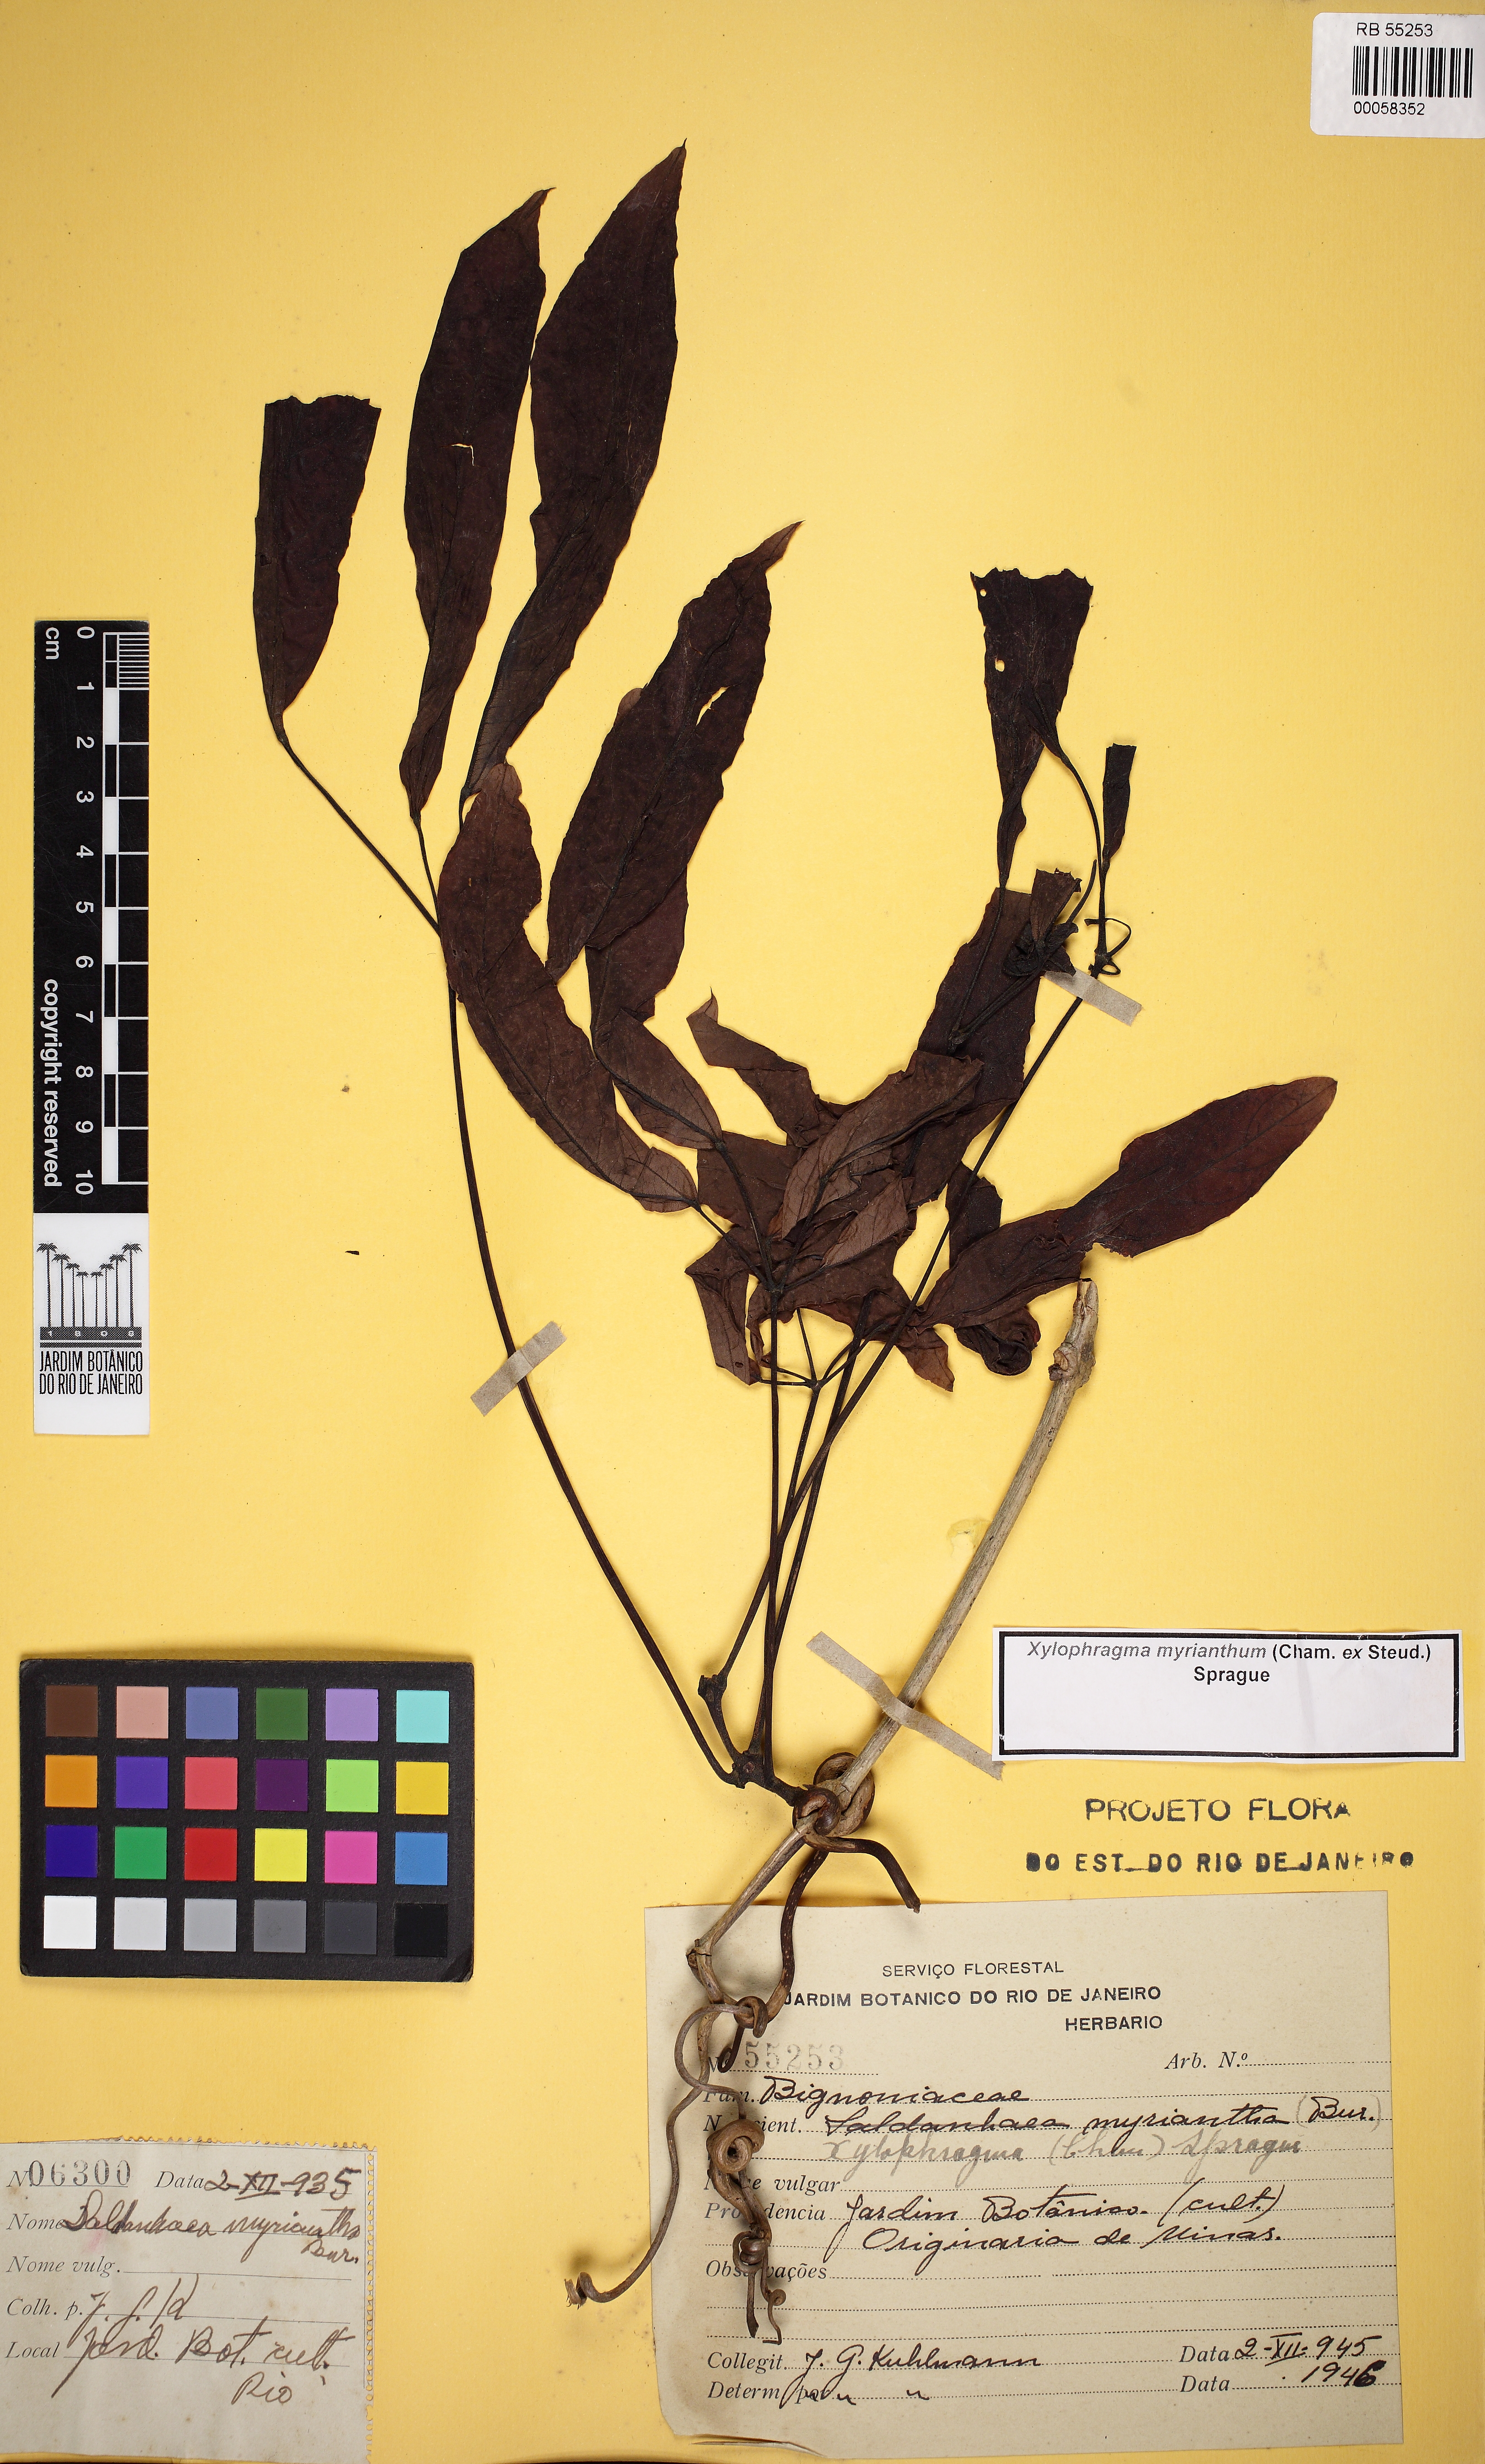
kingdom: Plantae
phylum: Tracheophyta
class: Magnoliopsida
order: Lamiales
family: Bignoniaceae
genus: Xylophragma
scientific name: Xylophragma myrianthum
